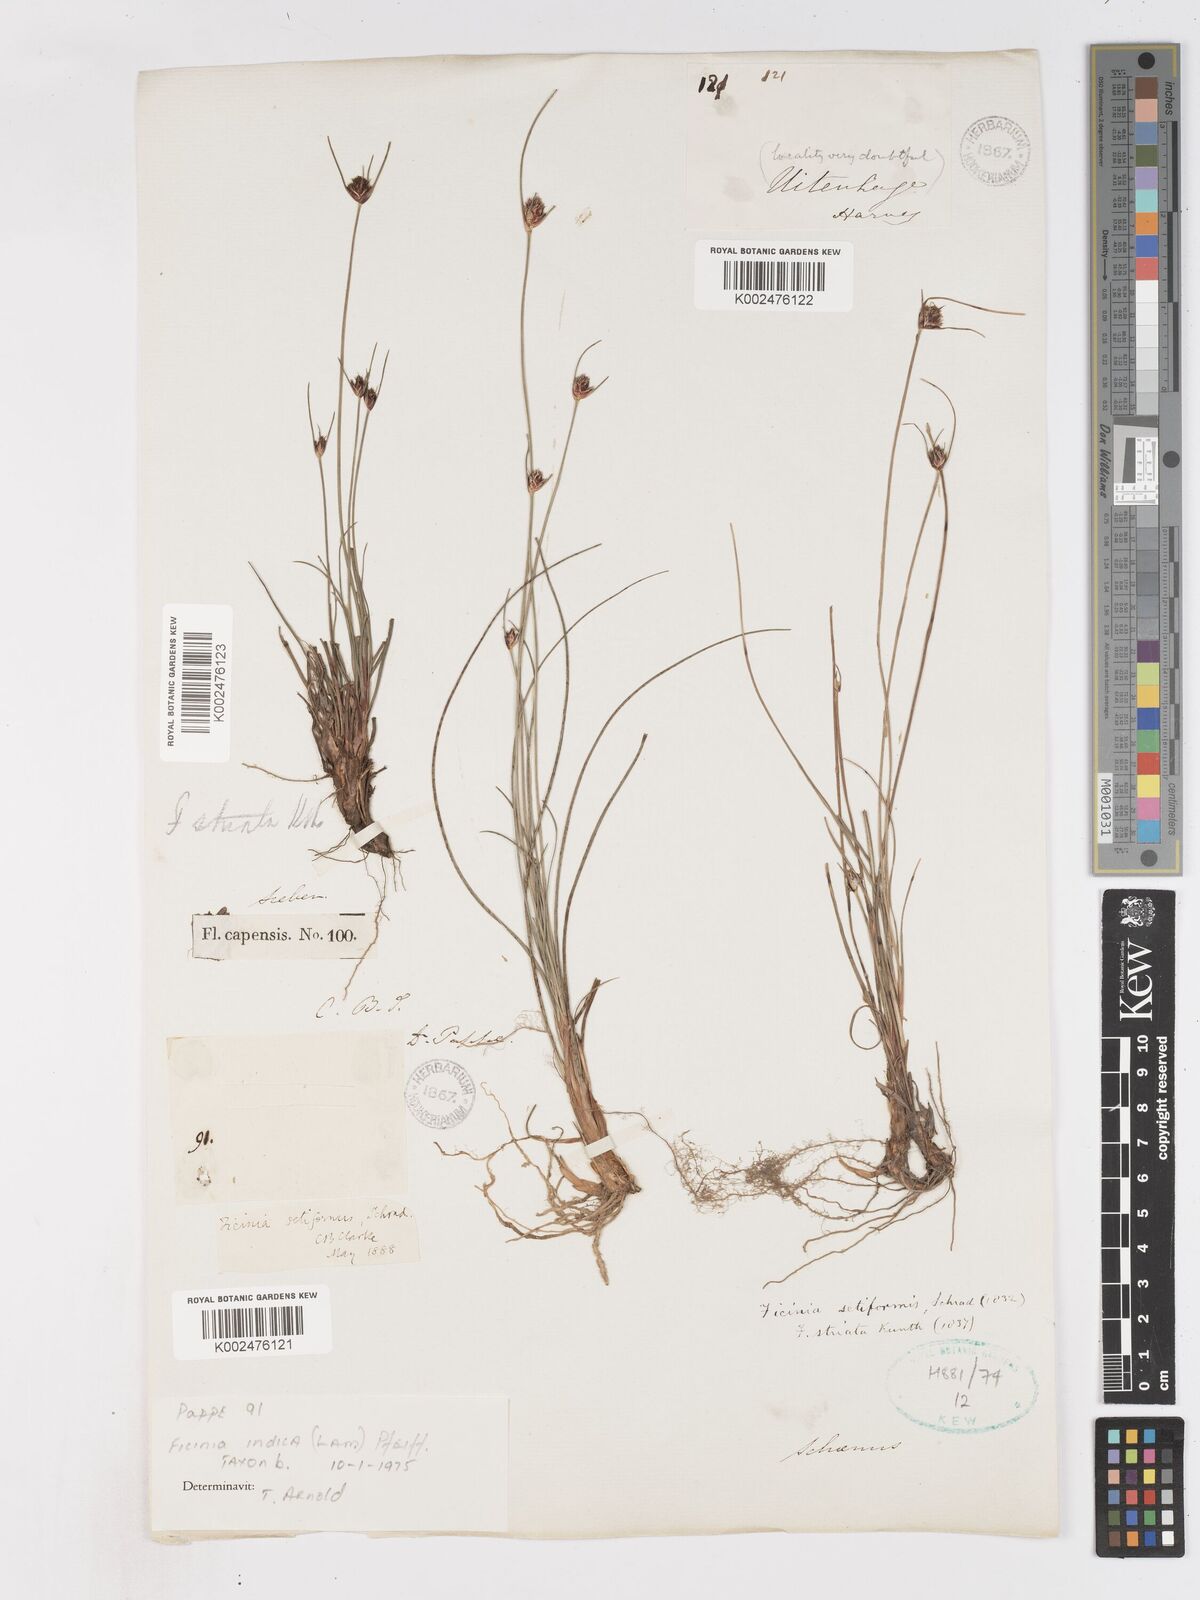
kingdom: Plantae
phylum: Tracheophyta
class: Liliopsida
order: Poales
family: Cyperaceae
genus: Ficinia
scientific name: Ficinia indica
